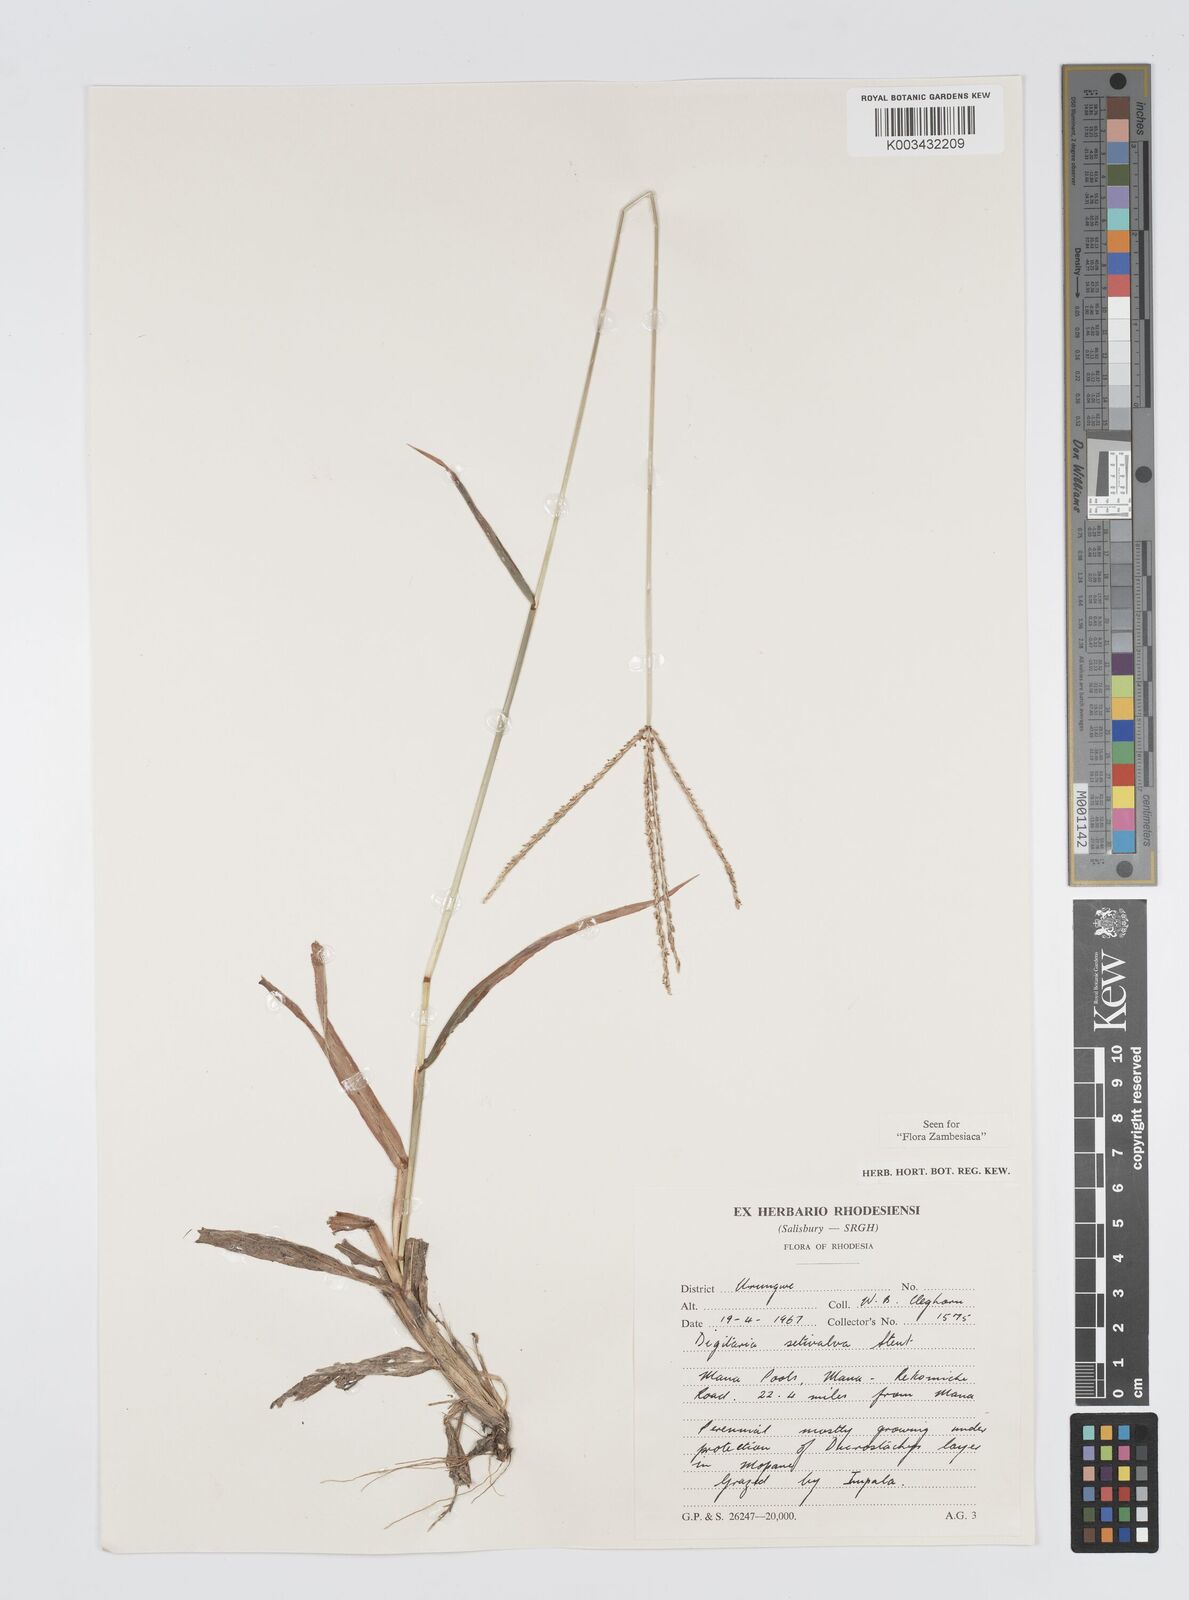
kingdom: Plantae
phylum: Tracheophyta
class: Liliopsida
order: Poales
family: Poaceae
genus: Digitaria
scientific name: Digitaria milanjiana
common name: Madagascar crabgrass
